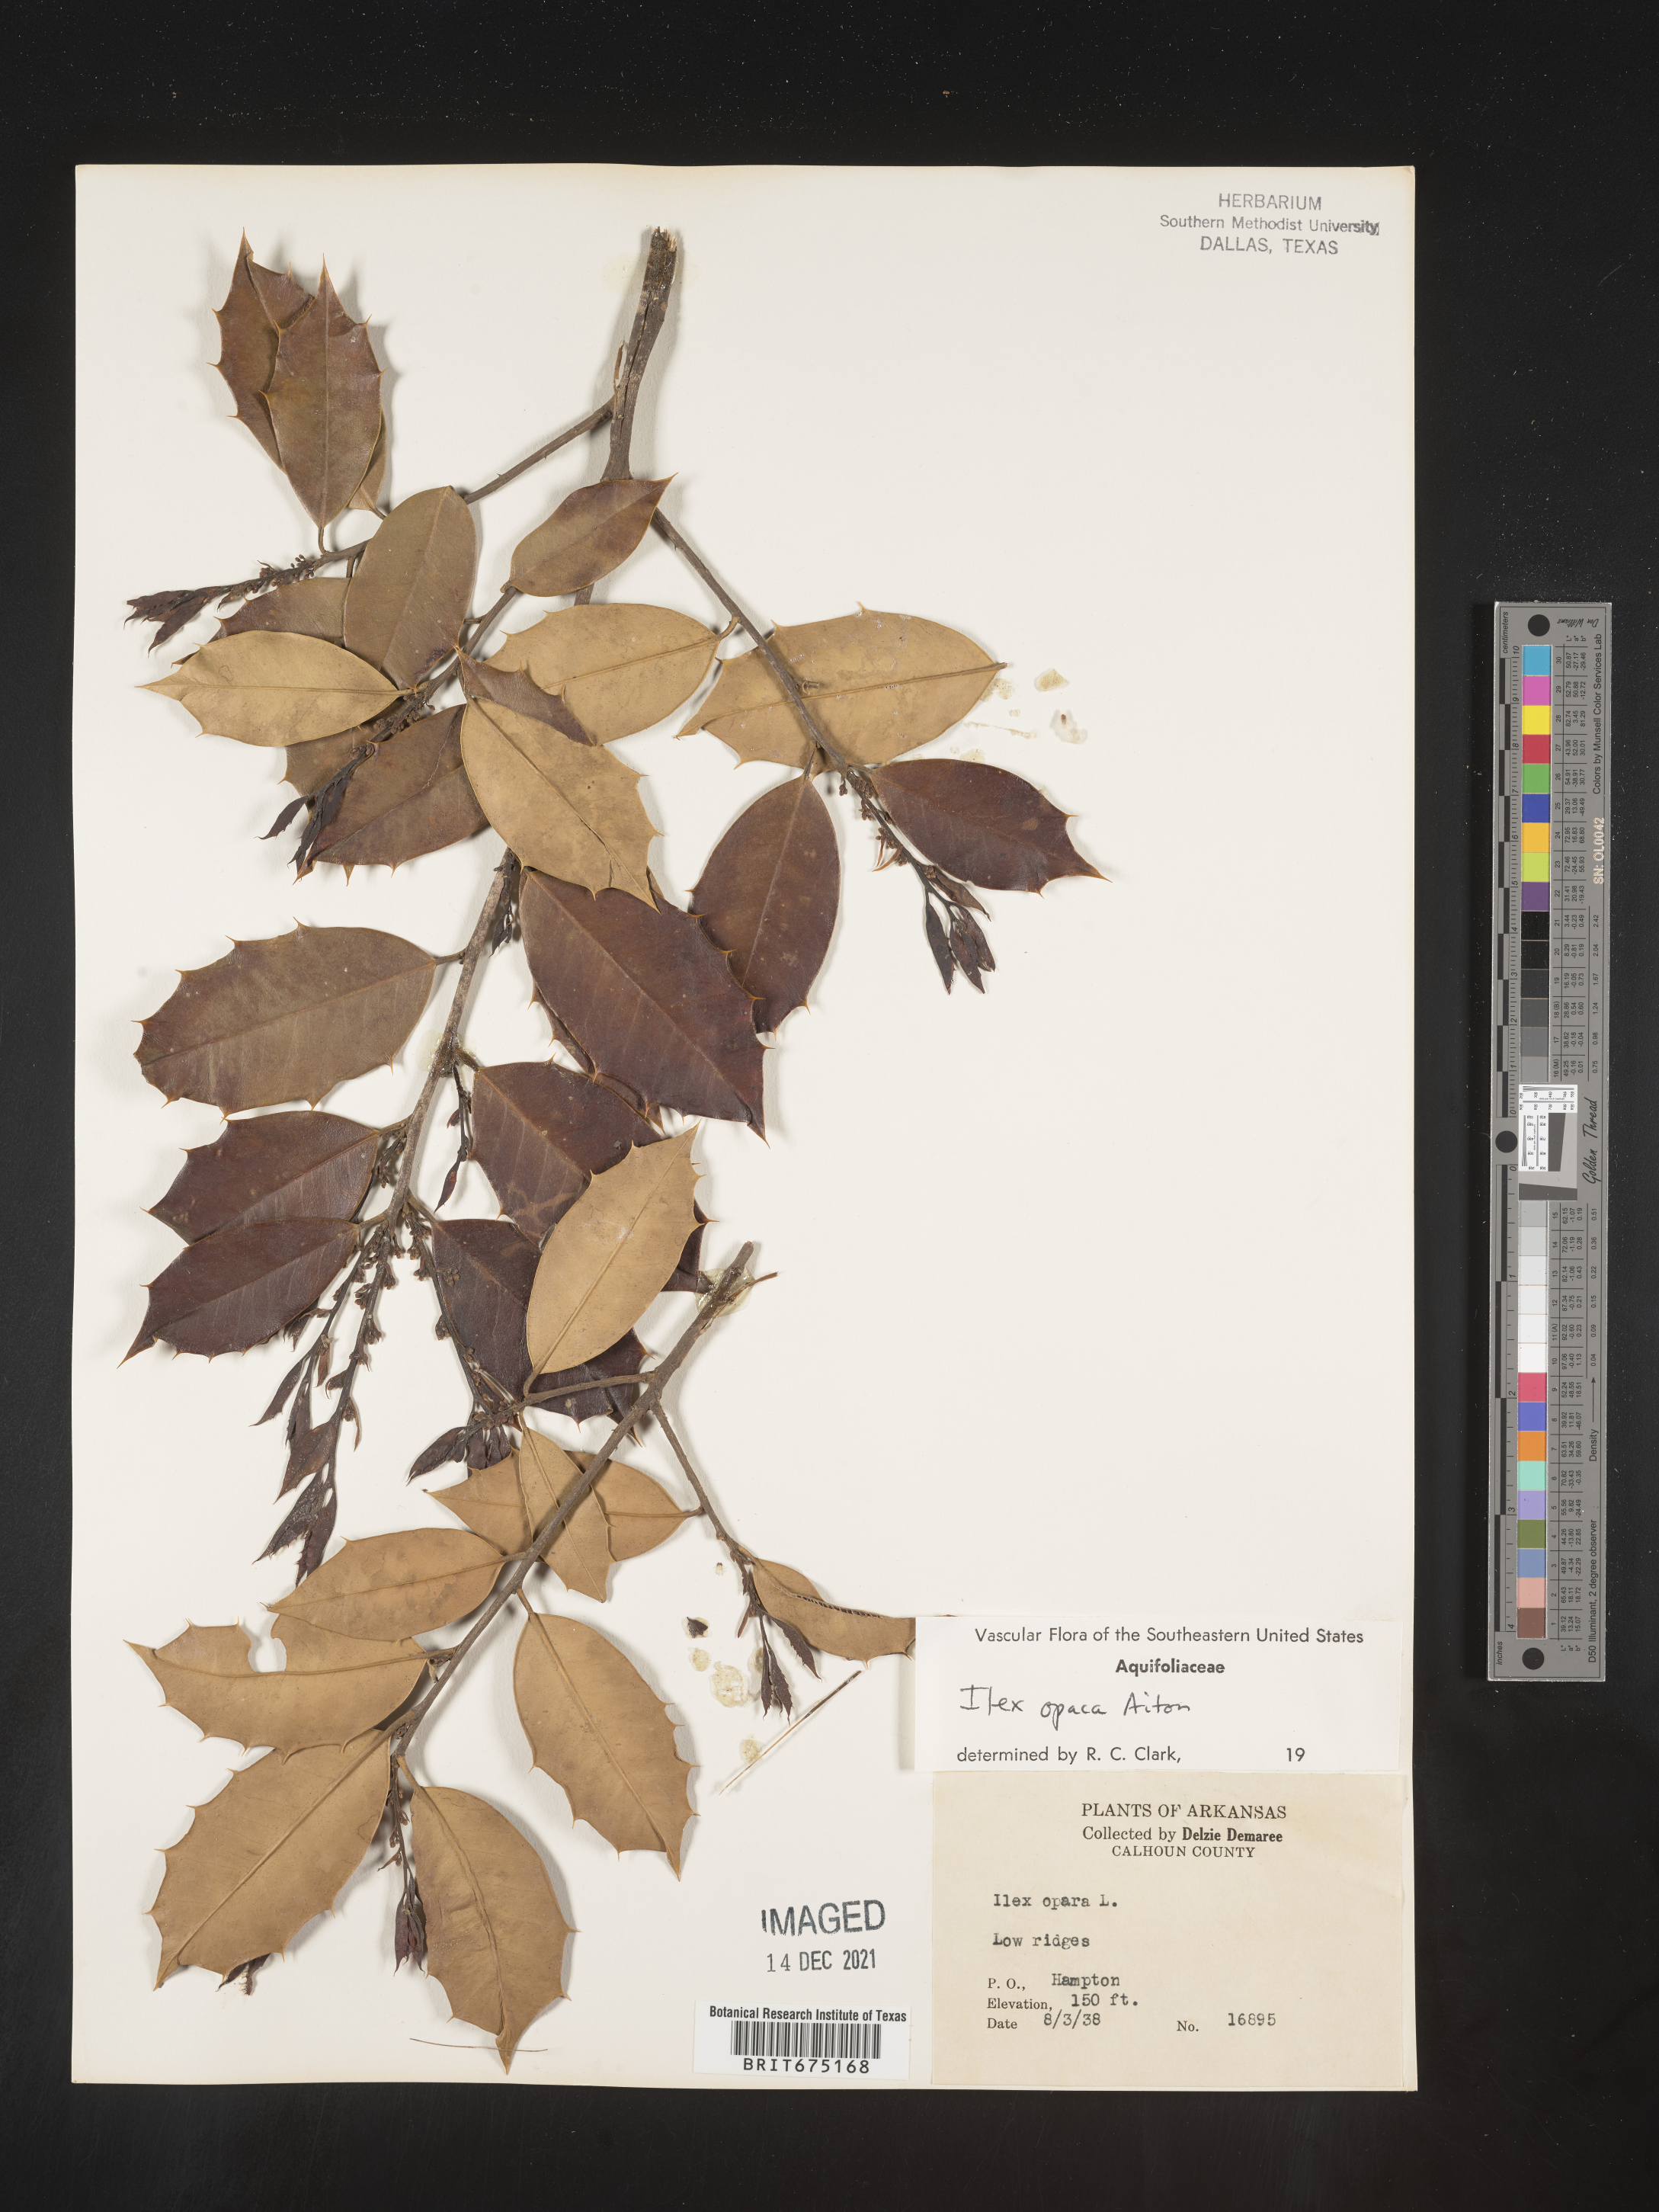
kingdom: Plantae
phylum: Tracheophyta
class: Magnoliopsida
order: Aquifoliales
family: Aquifoliaceae
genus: Ilex
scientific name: Ilex opaca
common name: American holly
